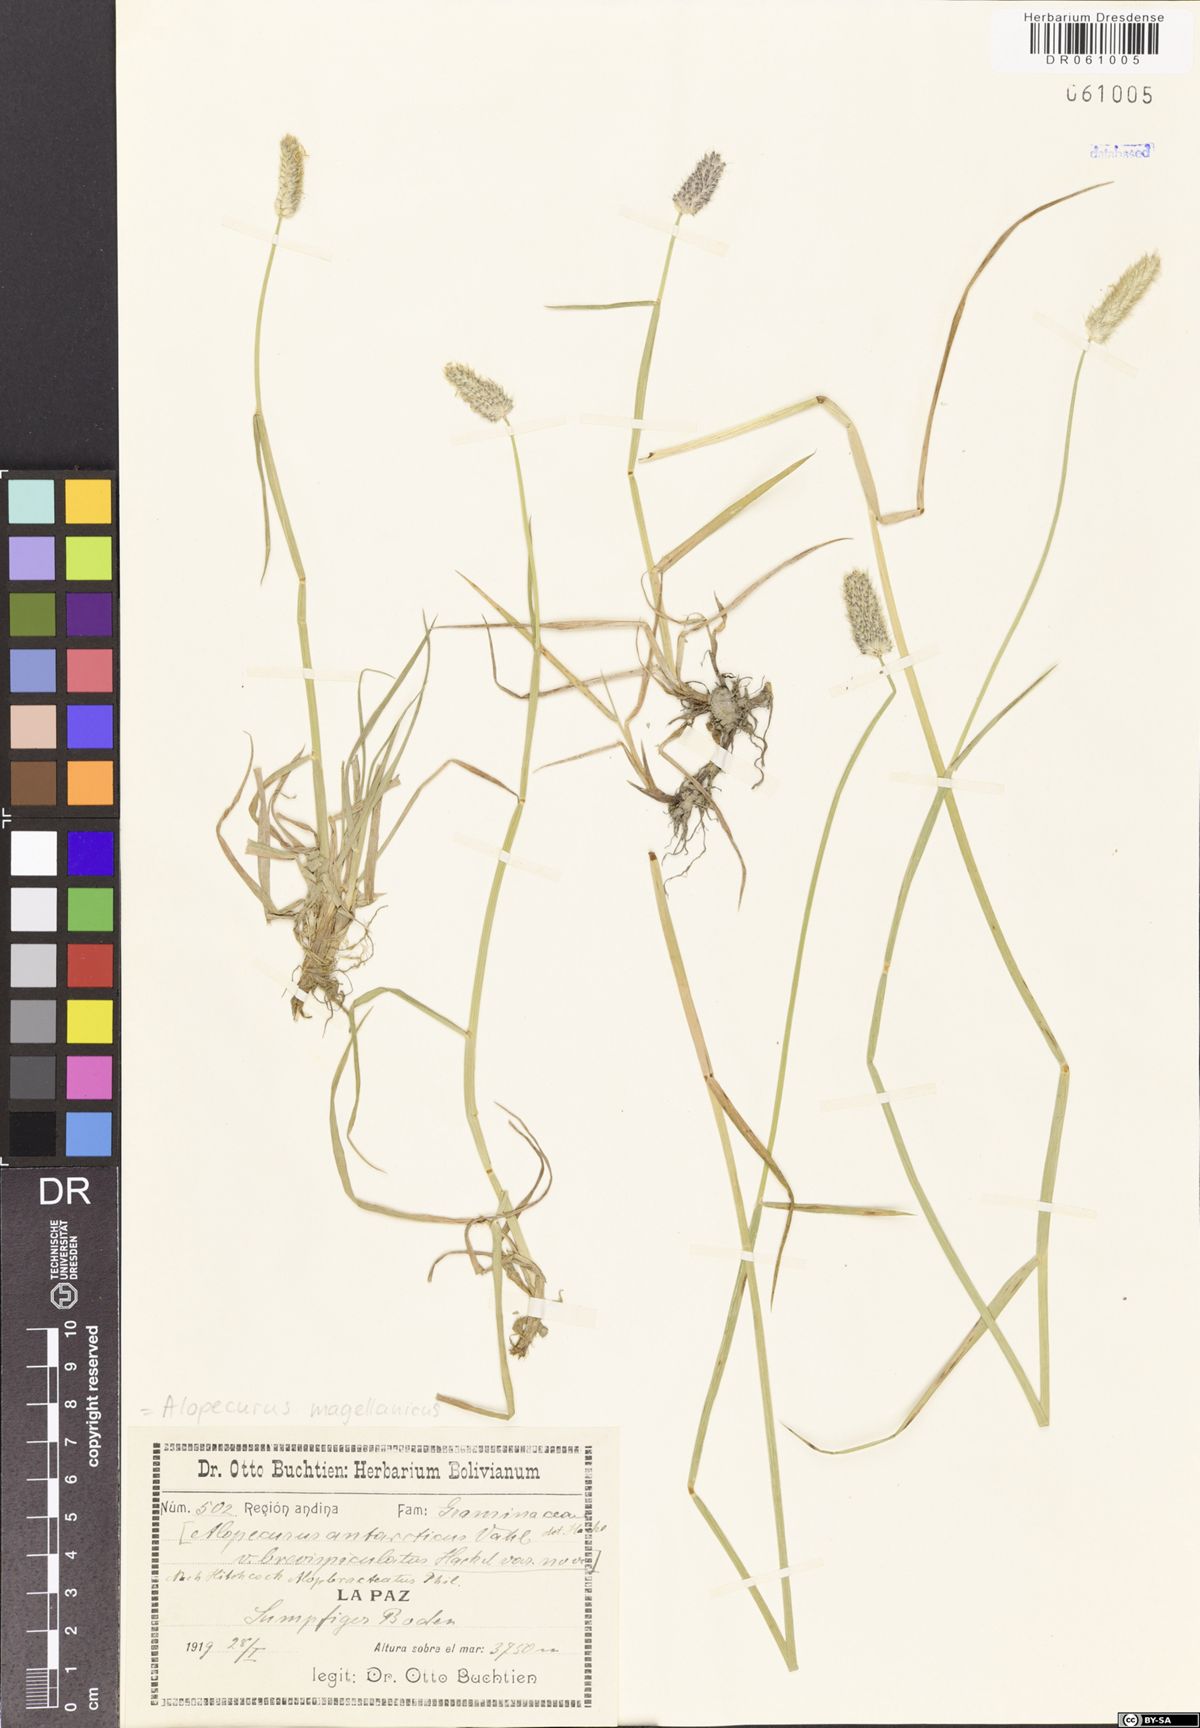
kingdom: Plantae
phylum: Tracheophyta
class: Liliopsida
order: Poales
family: Poaceae
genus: Alopecurus
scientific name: Alopecurus magellanicus
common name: Alpine foxtail
